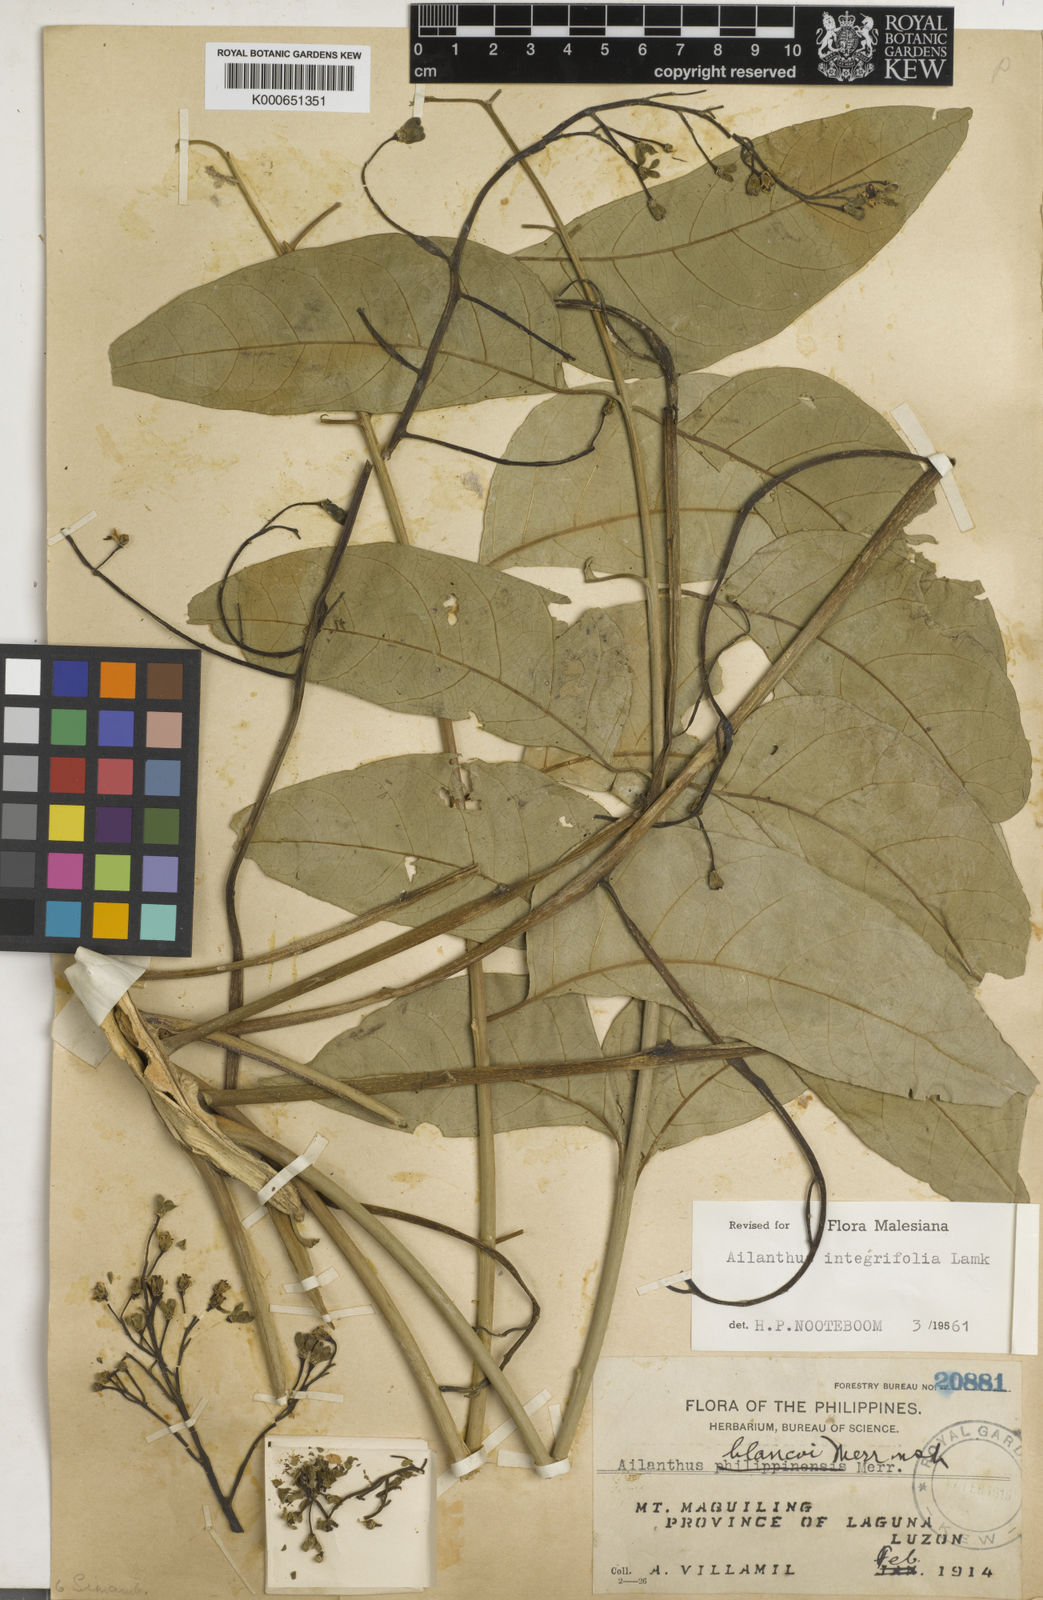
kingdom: Plantae
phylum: Tracheophyta
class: Magnoliopsida
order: Sapindales
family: Simaroubaceae
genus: Ailanthus
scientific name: Ailanthus integrifolia
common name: White siris
